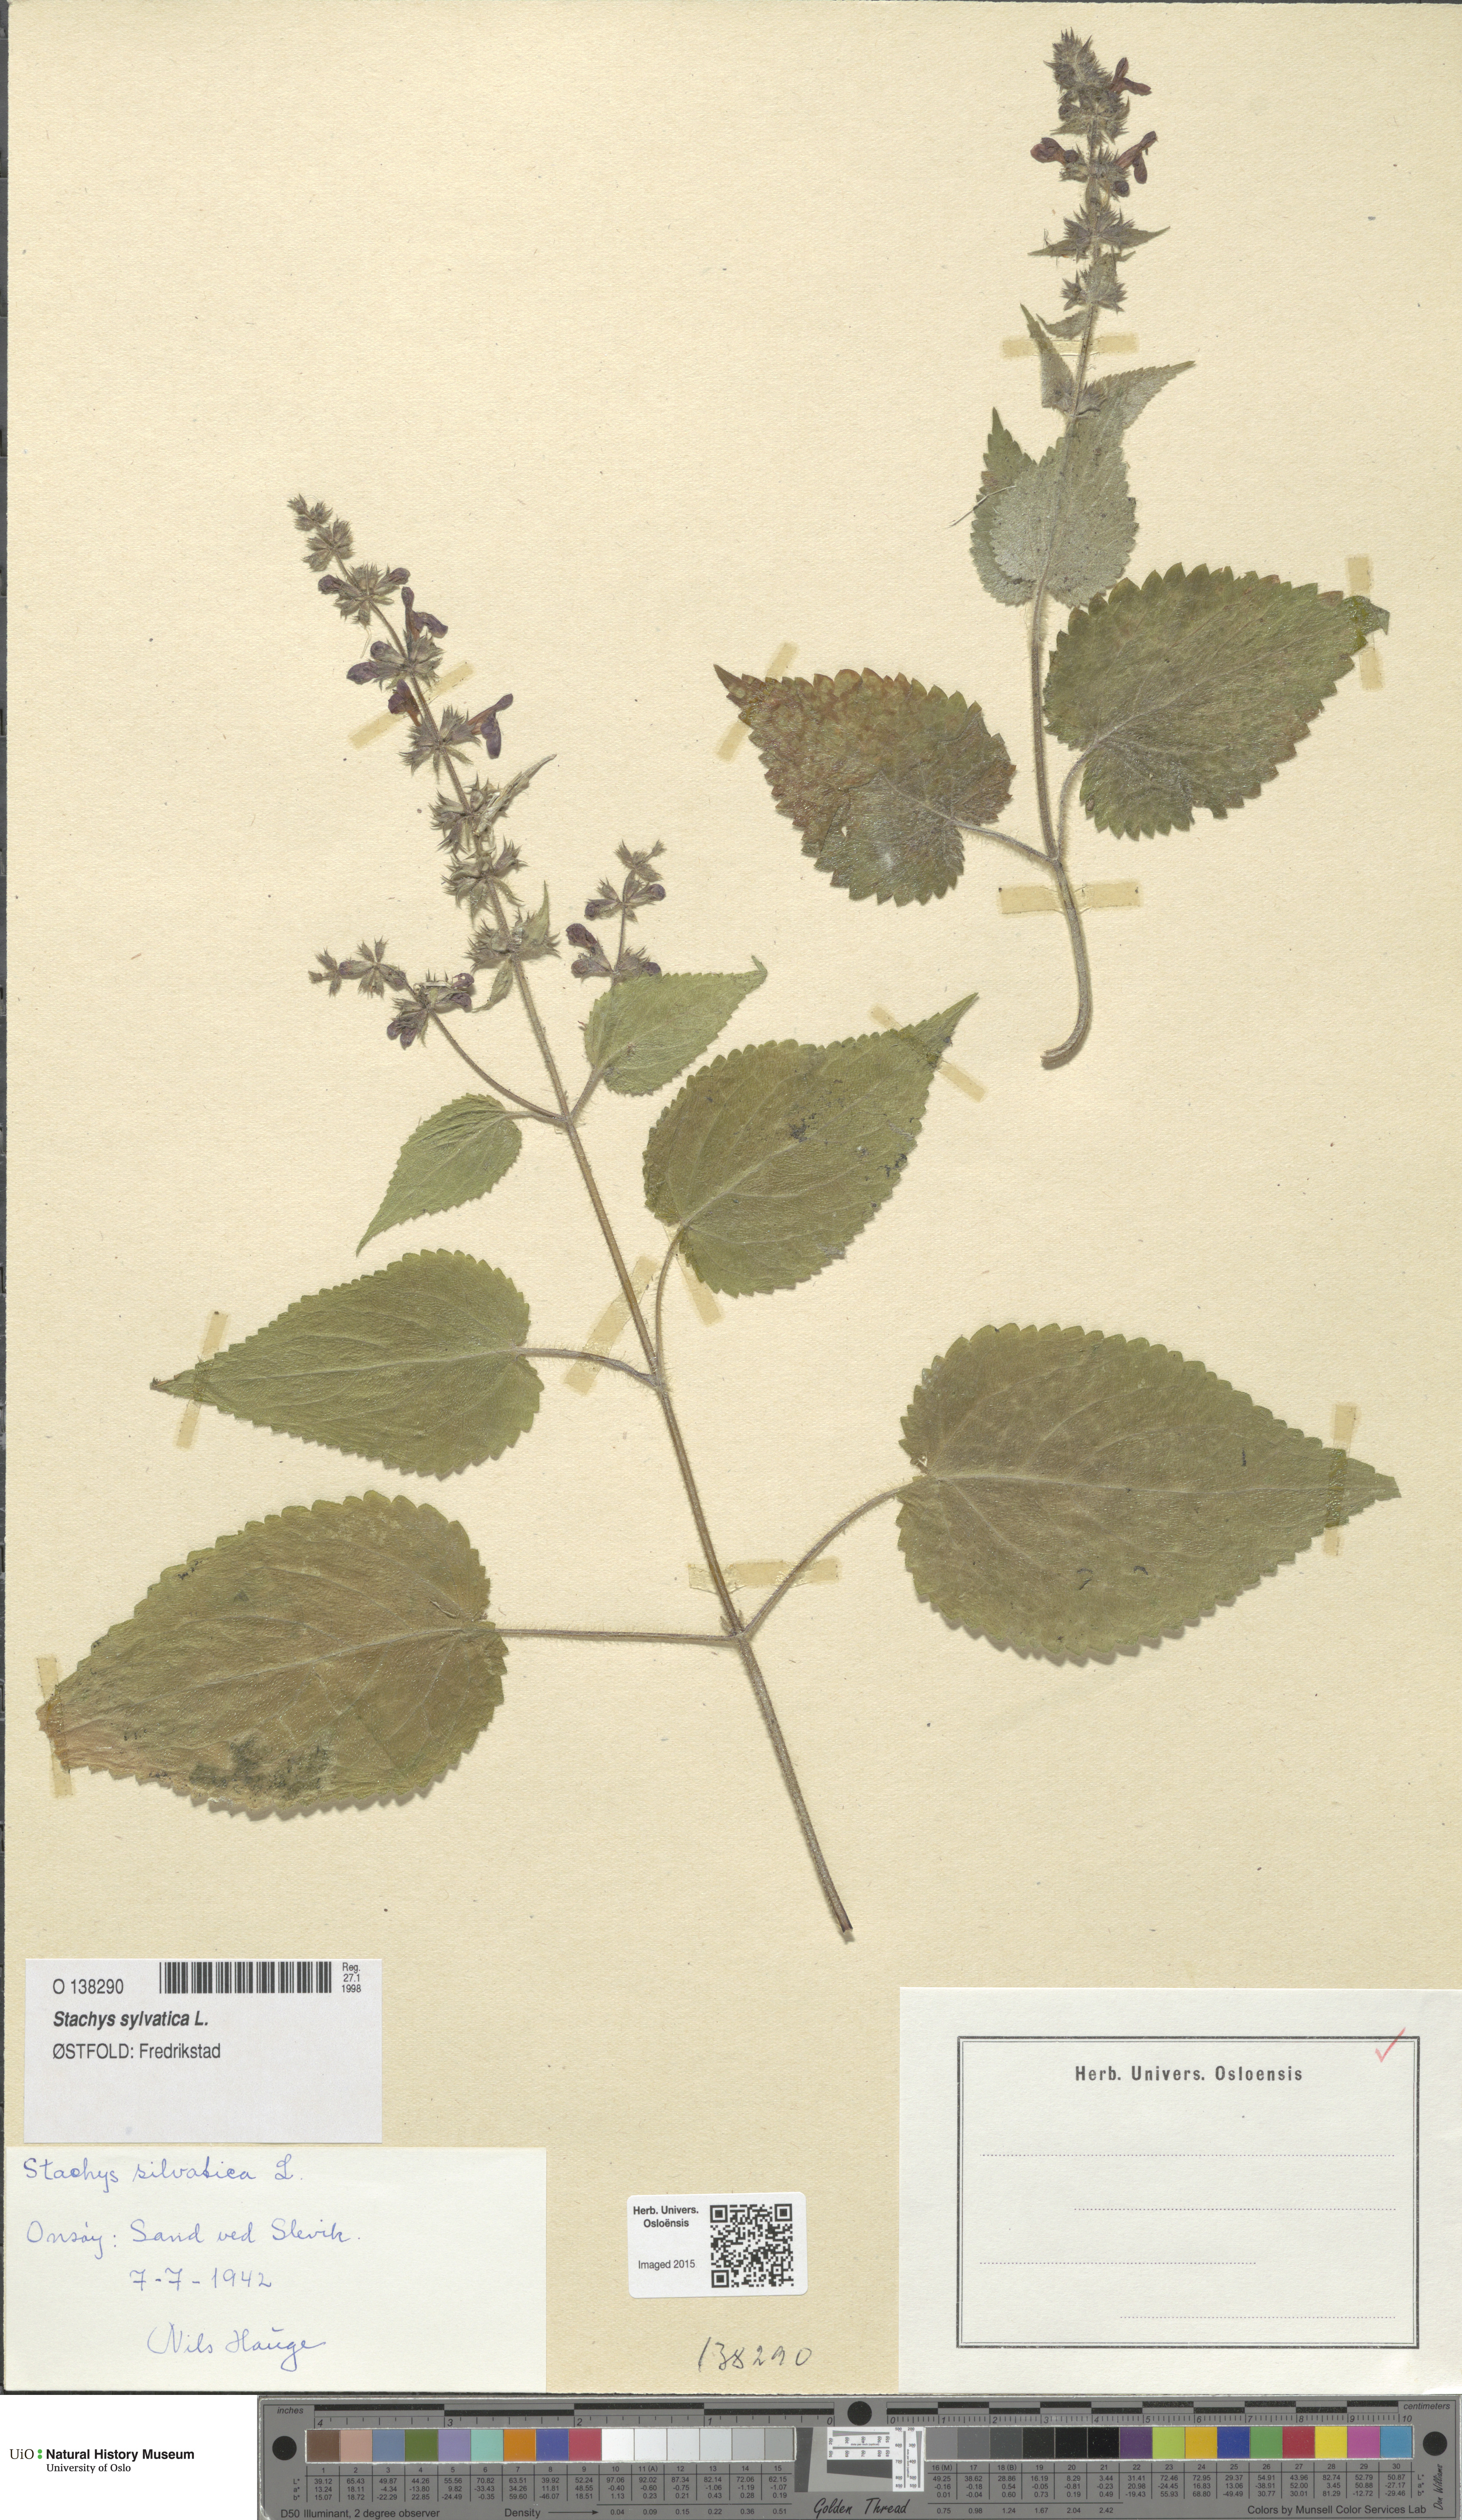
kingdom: Plantae
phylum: Tracheophyta
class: Magnoliopsida
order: Lamiales
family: Lamiaceae
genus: Stachys
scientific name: Stachys sylvatica
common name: Hedge woundwort
